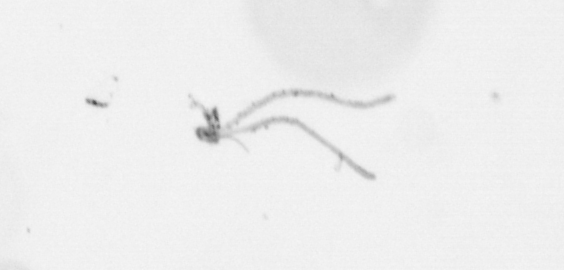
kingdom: Chromista
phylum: Ochrophyta
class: Bacillariophyceae
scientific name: Bacillariophyceae
